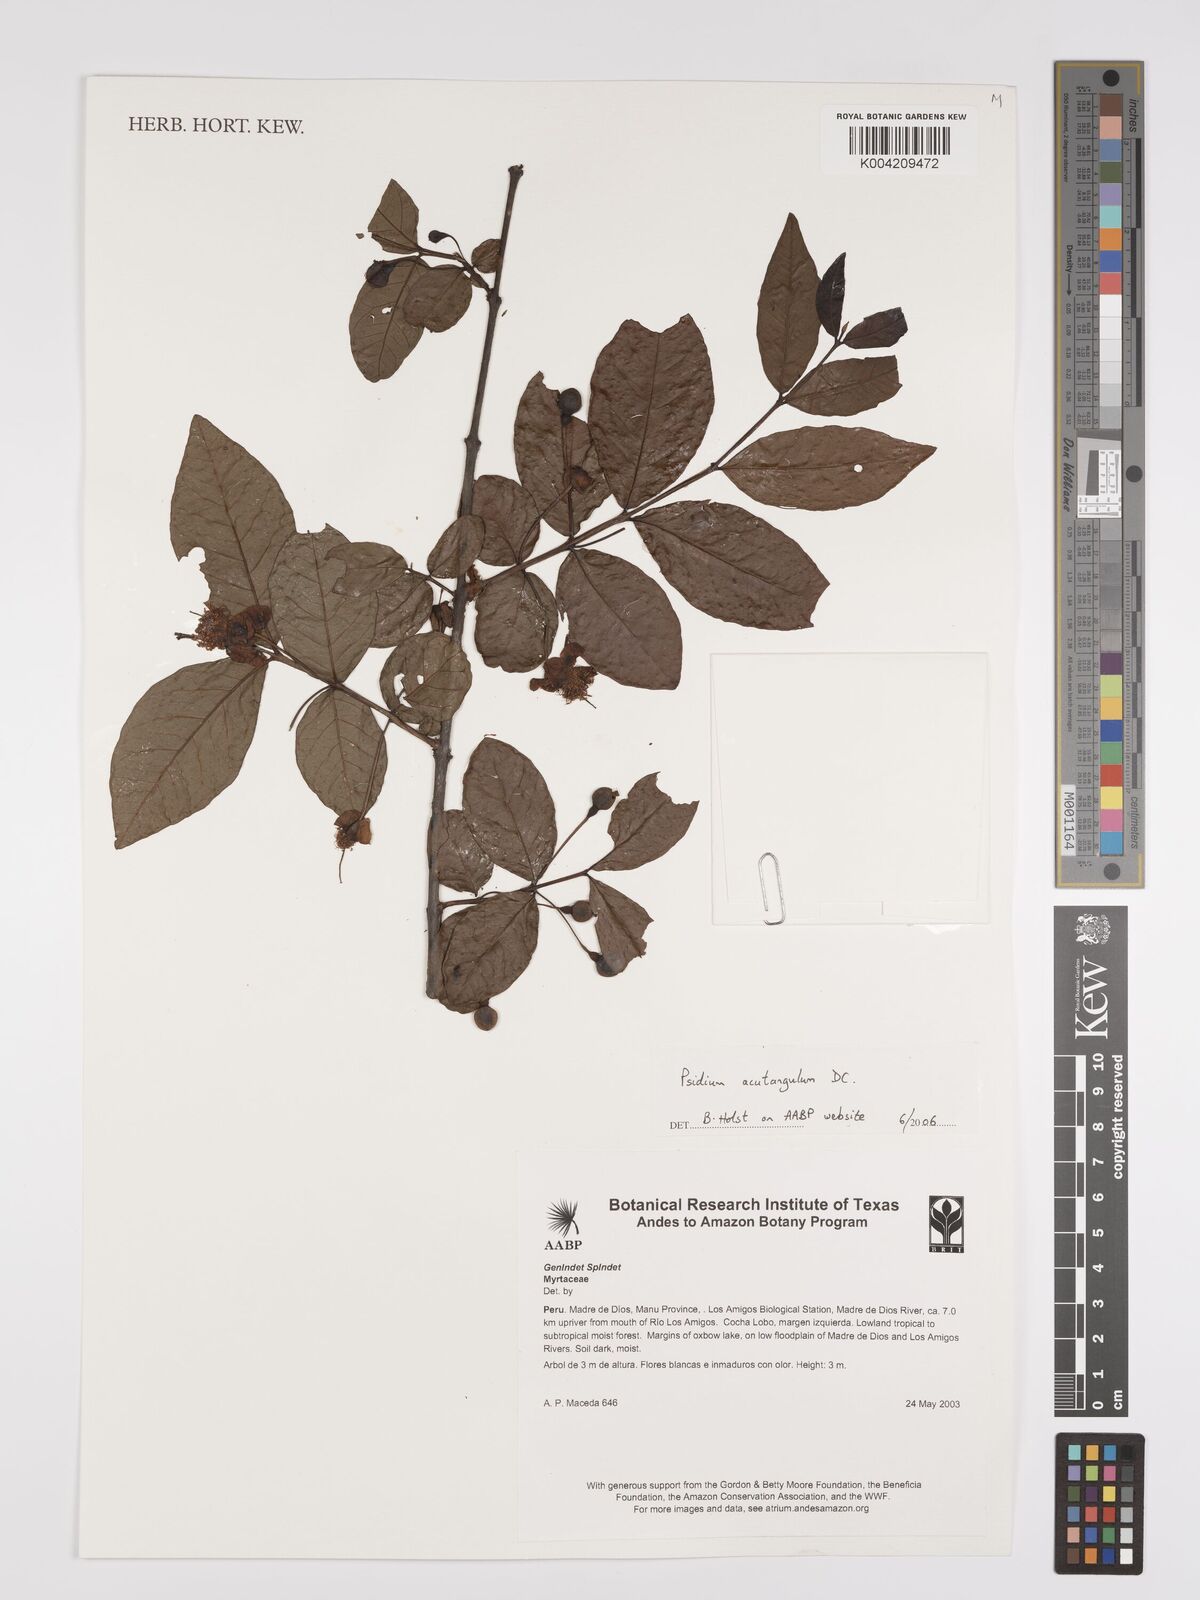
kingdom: Plantae
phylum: Tracheophyta
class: Magnoliopsida
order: Myrtales
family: Myrtaceae
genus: Psidium
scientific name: Psidium acutangulum
